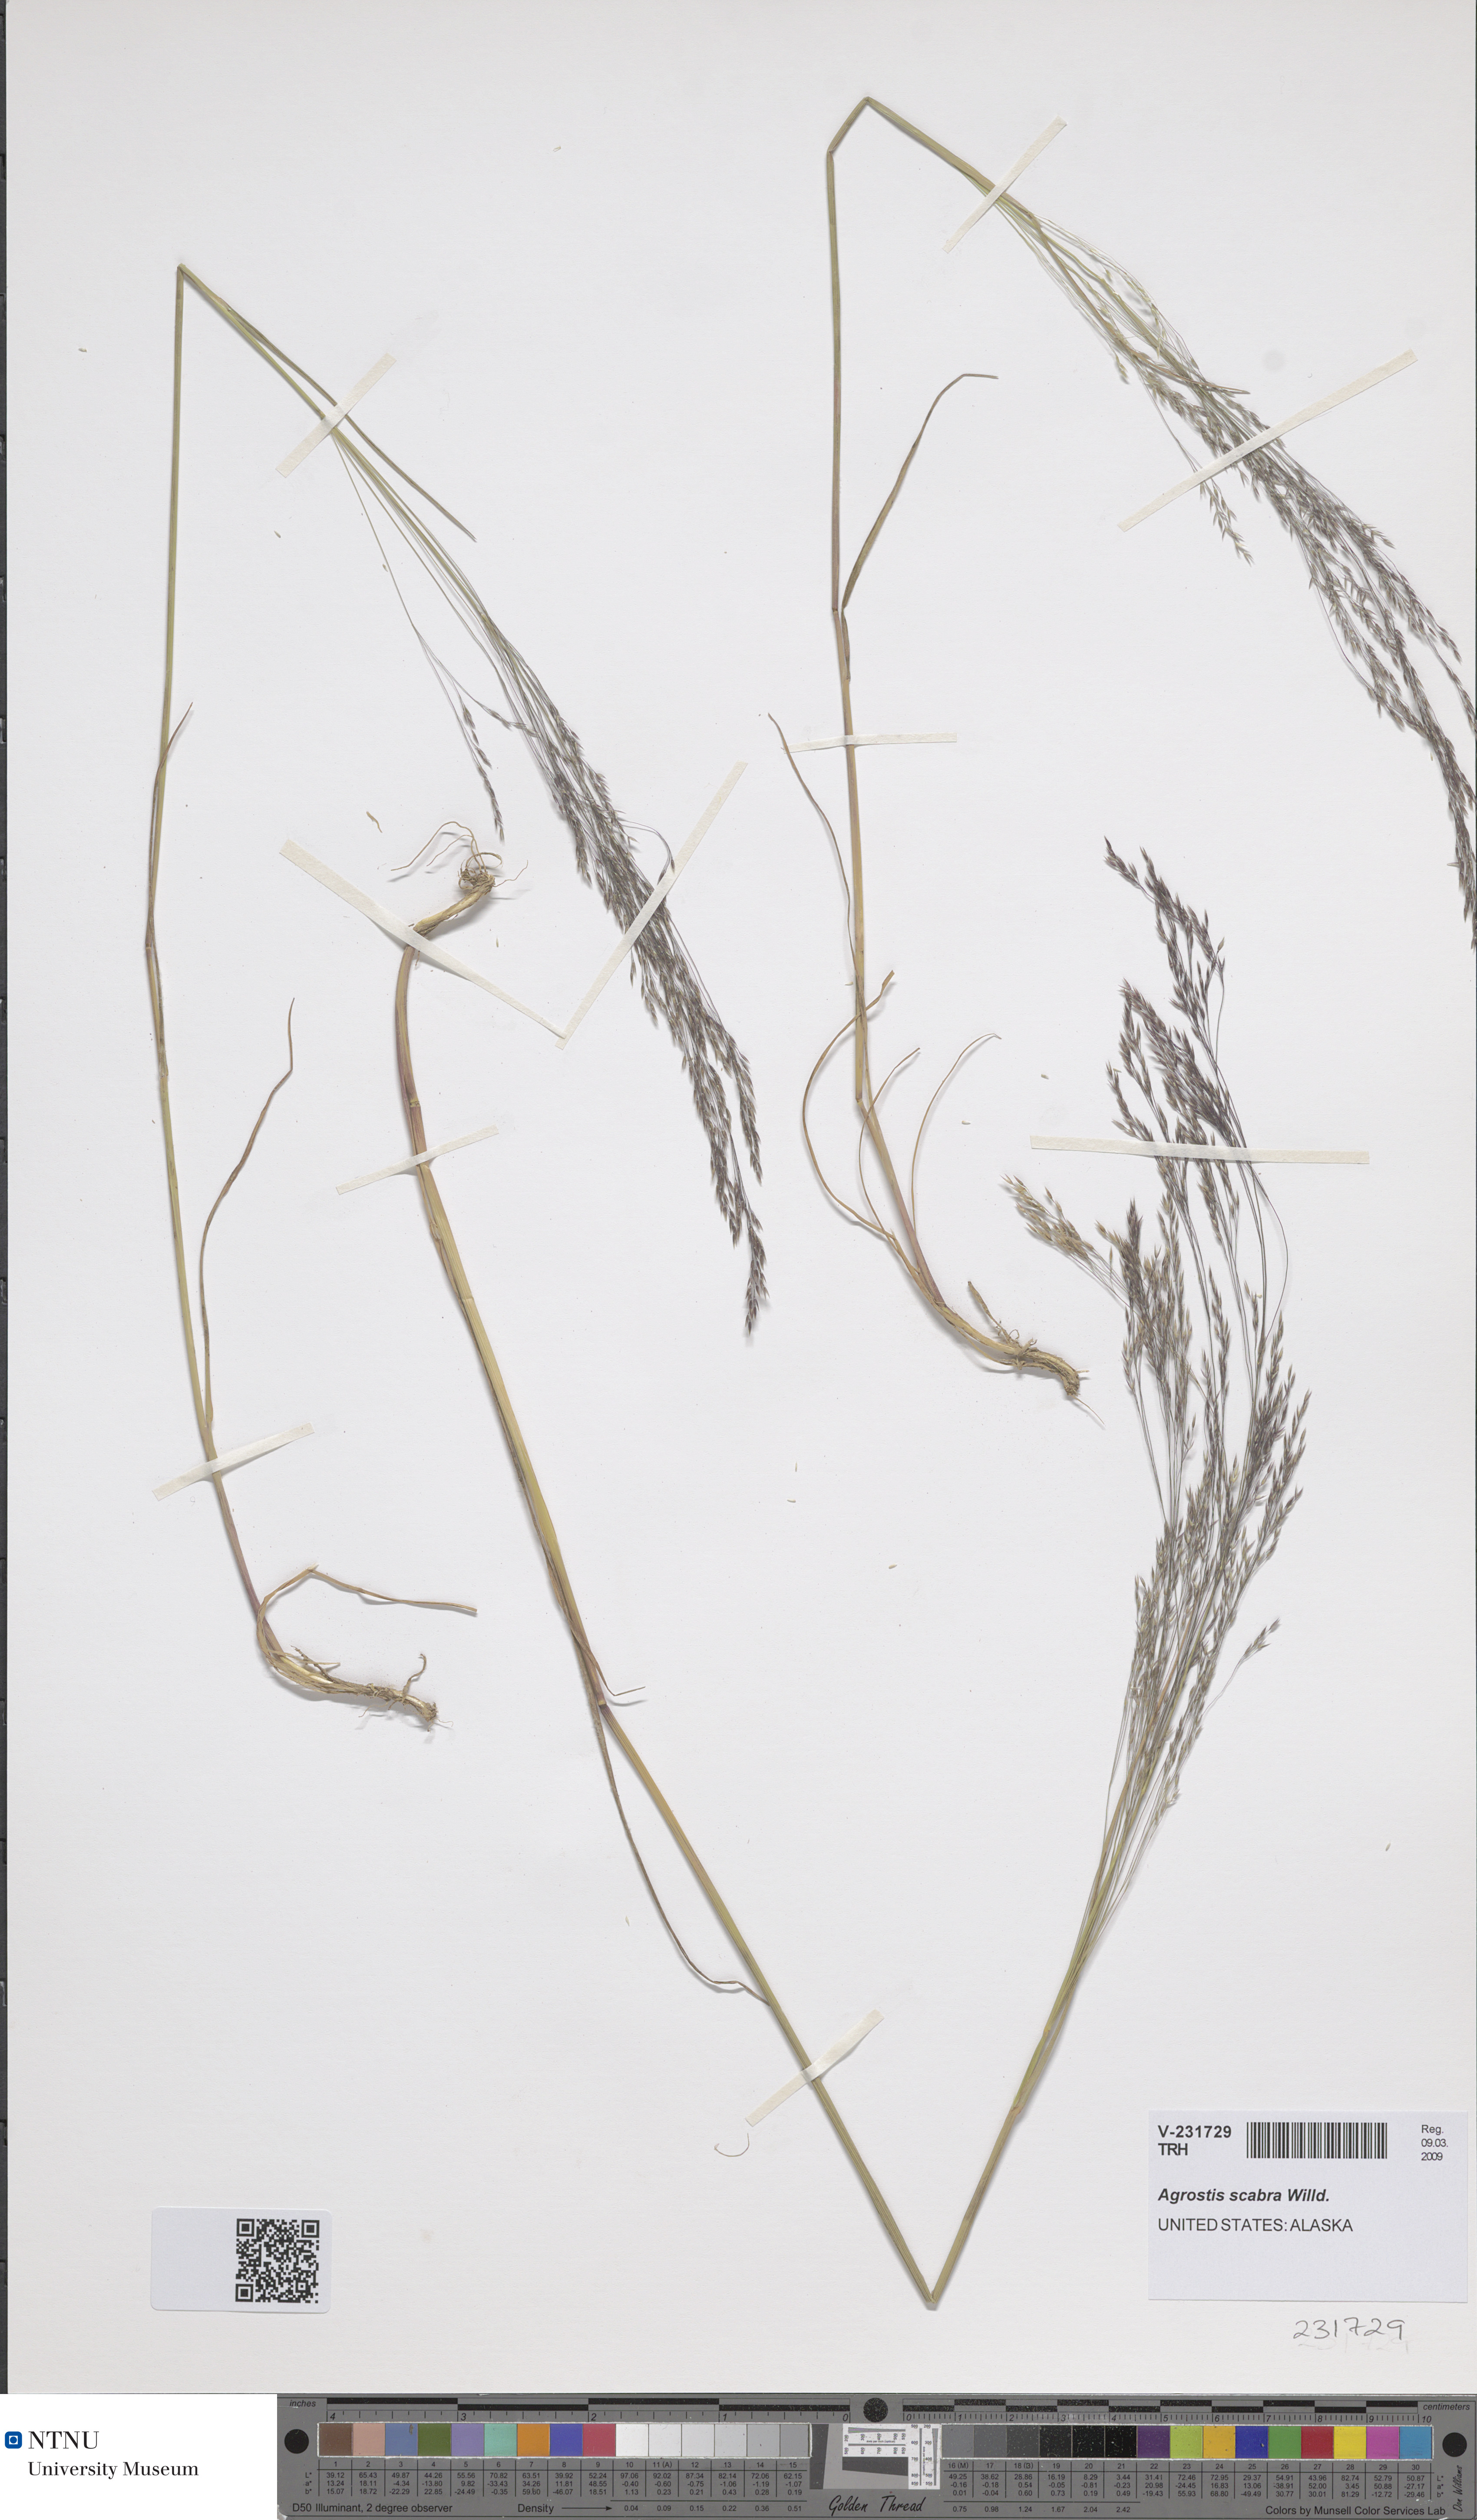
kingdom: Plantae
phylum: Tracheophyta
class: Liliopsida
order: Poales
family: Poaceae
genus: Agrostis
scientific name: Agrostis scabra
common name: Rough bent
